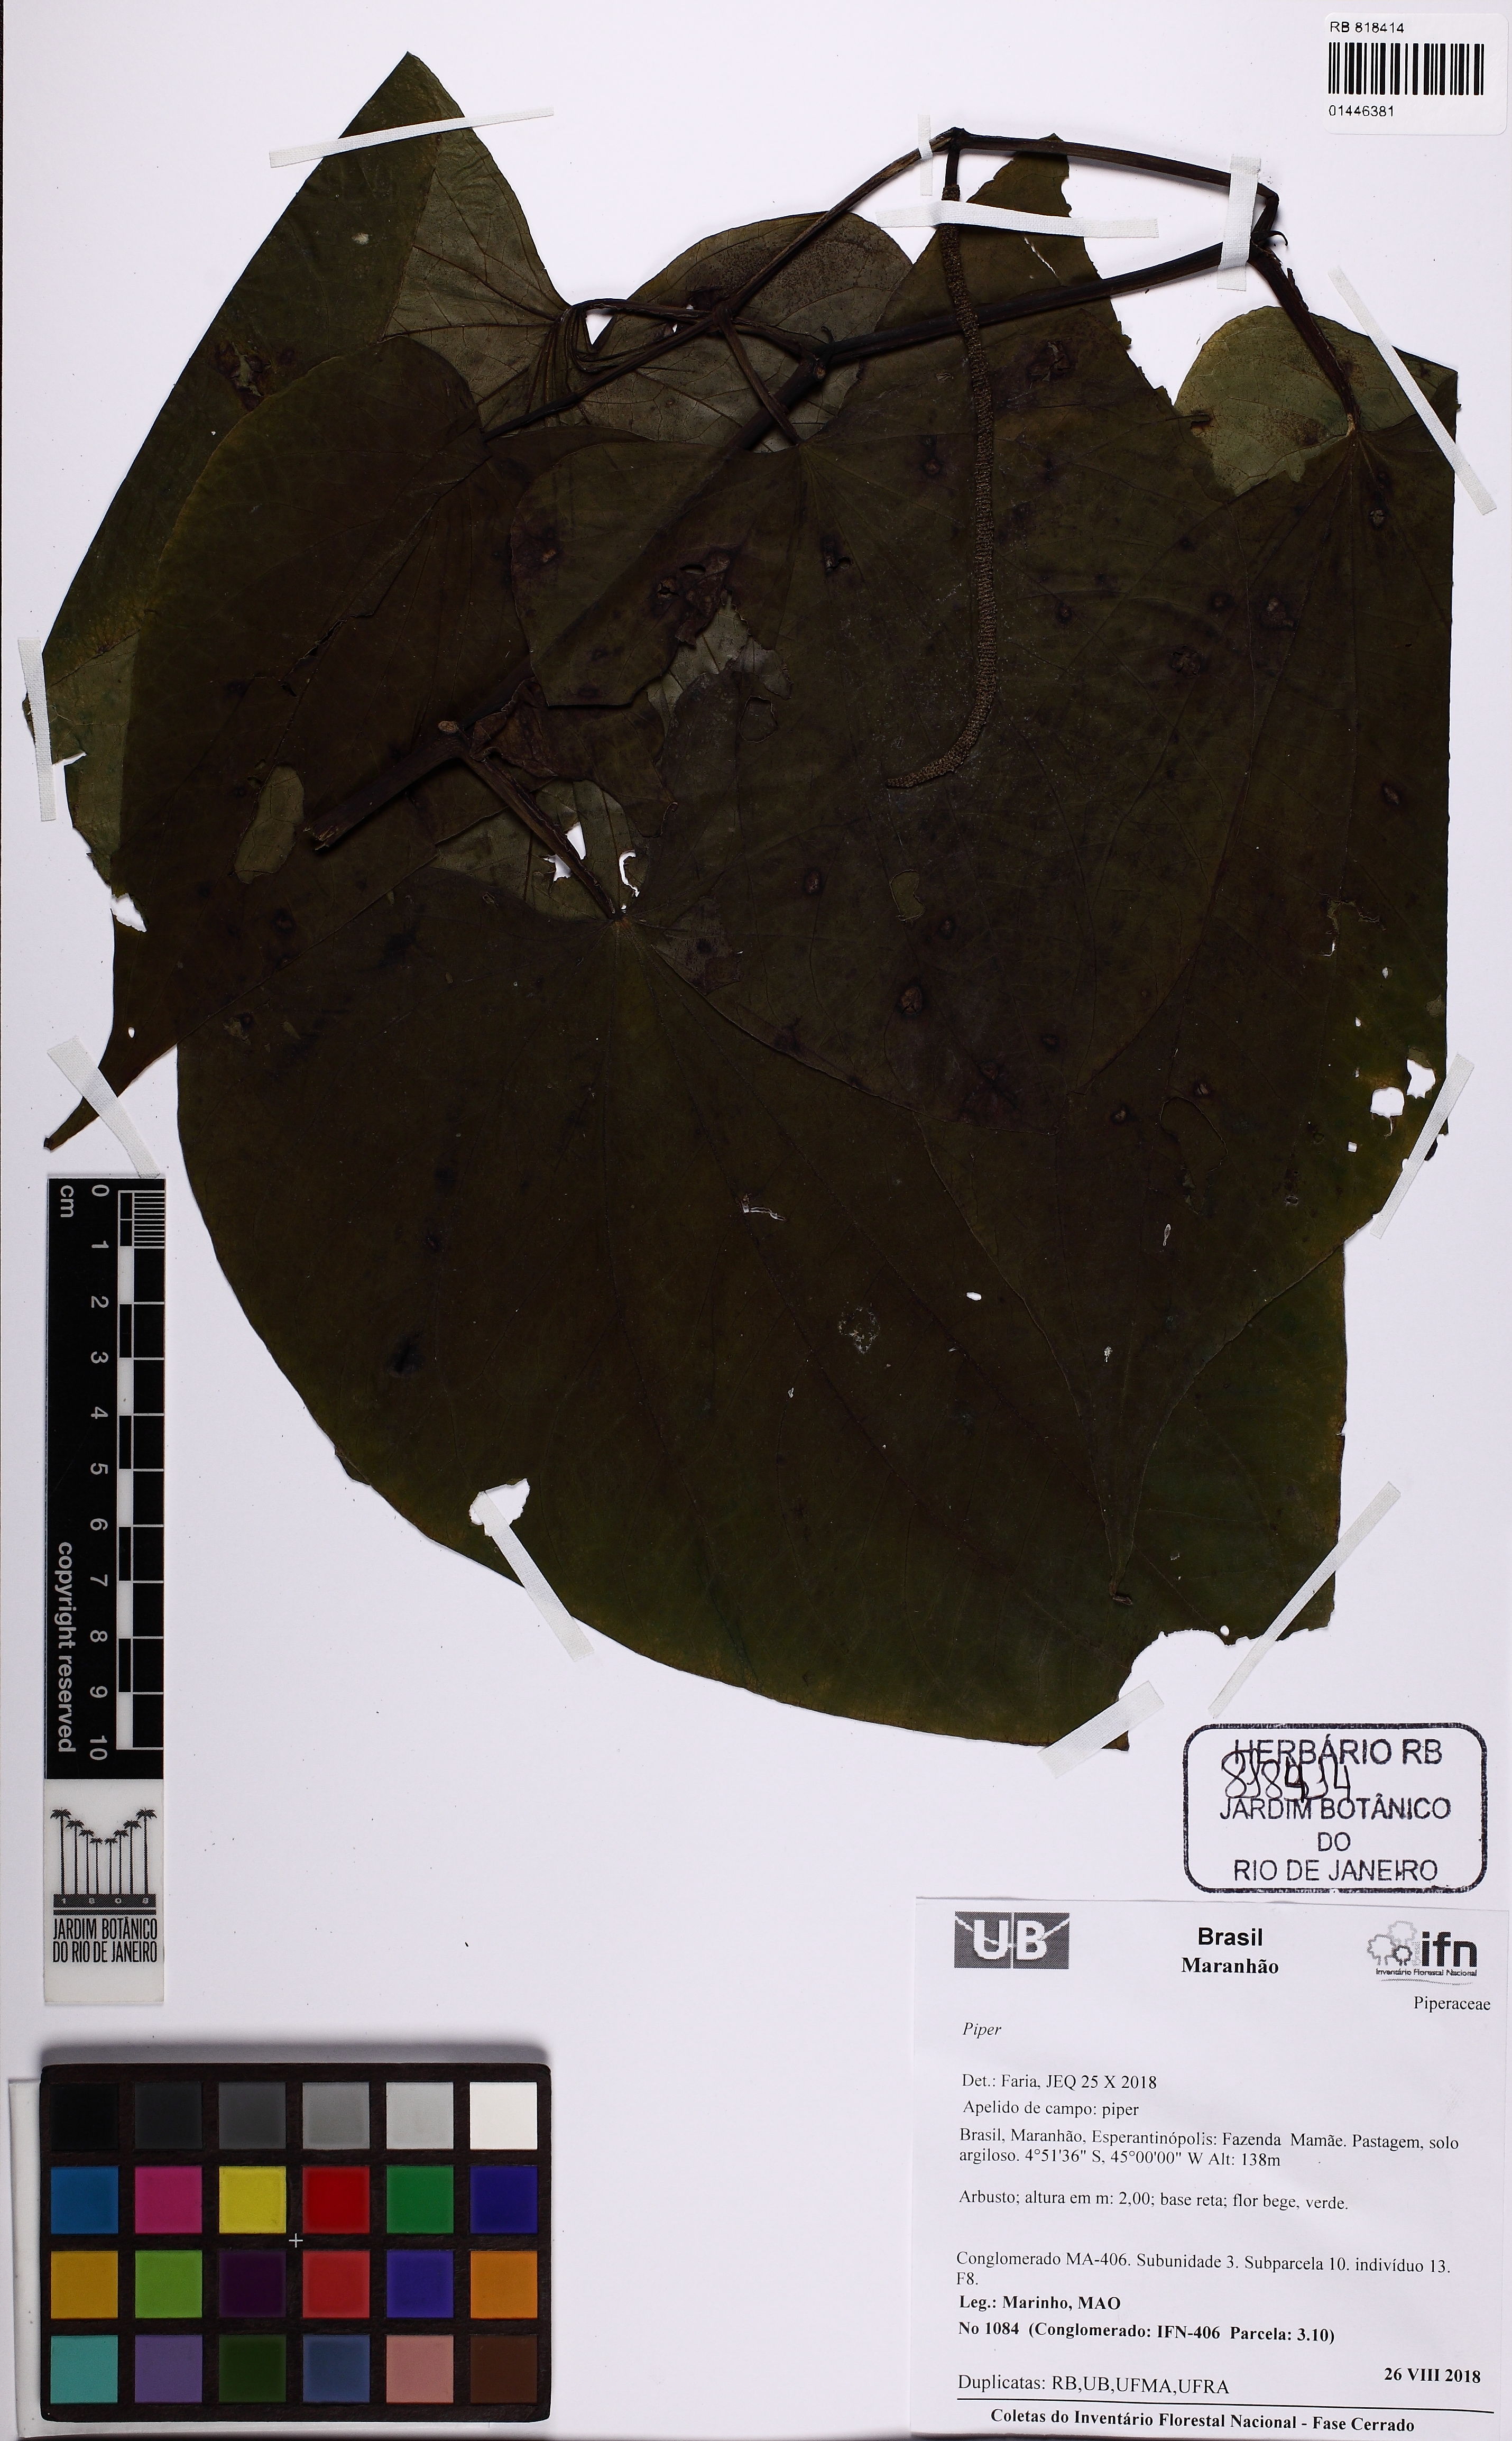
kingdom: Plantae
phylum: Tracheophyta
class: Magnoliopsida
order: Piperales
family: Piperaceae
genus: Piper
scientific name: Piper
